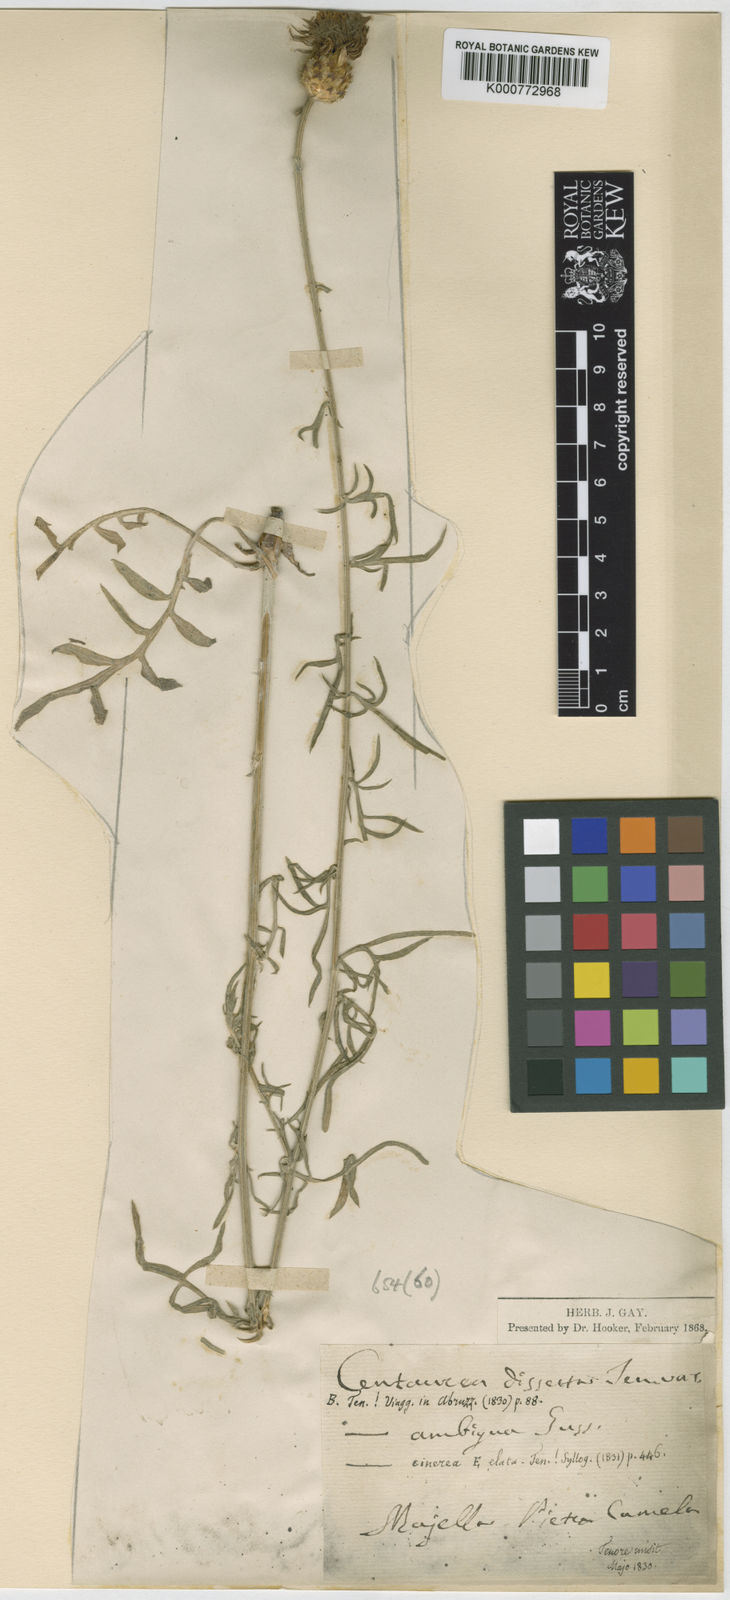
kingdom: Plantae
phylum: Tracheophyta
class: Magnoliopsida
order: Asterales
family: Asteraceae
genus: Centaurea
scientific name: Centaurea ambigua
